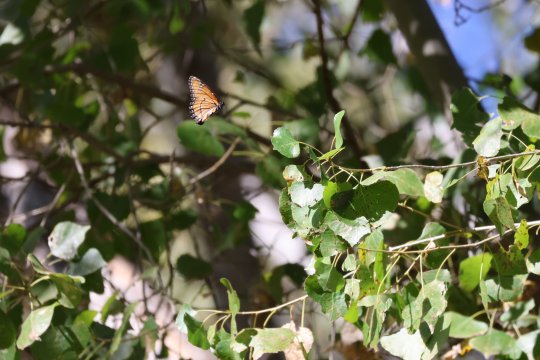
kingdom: Animalia
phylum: Arthropoda
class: Insecta
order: Lepidoptera
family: Nymphalidae
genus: Limenitis
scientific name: Limenitis archippus
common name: Viceroy
